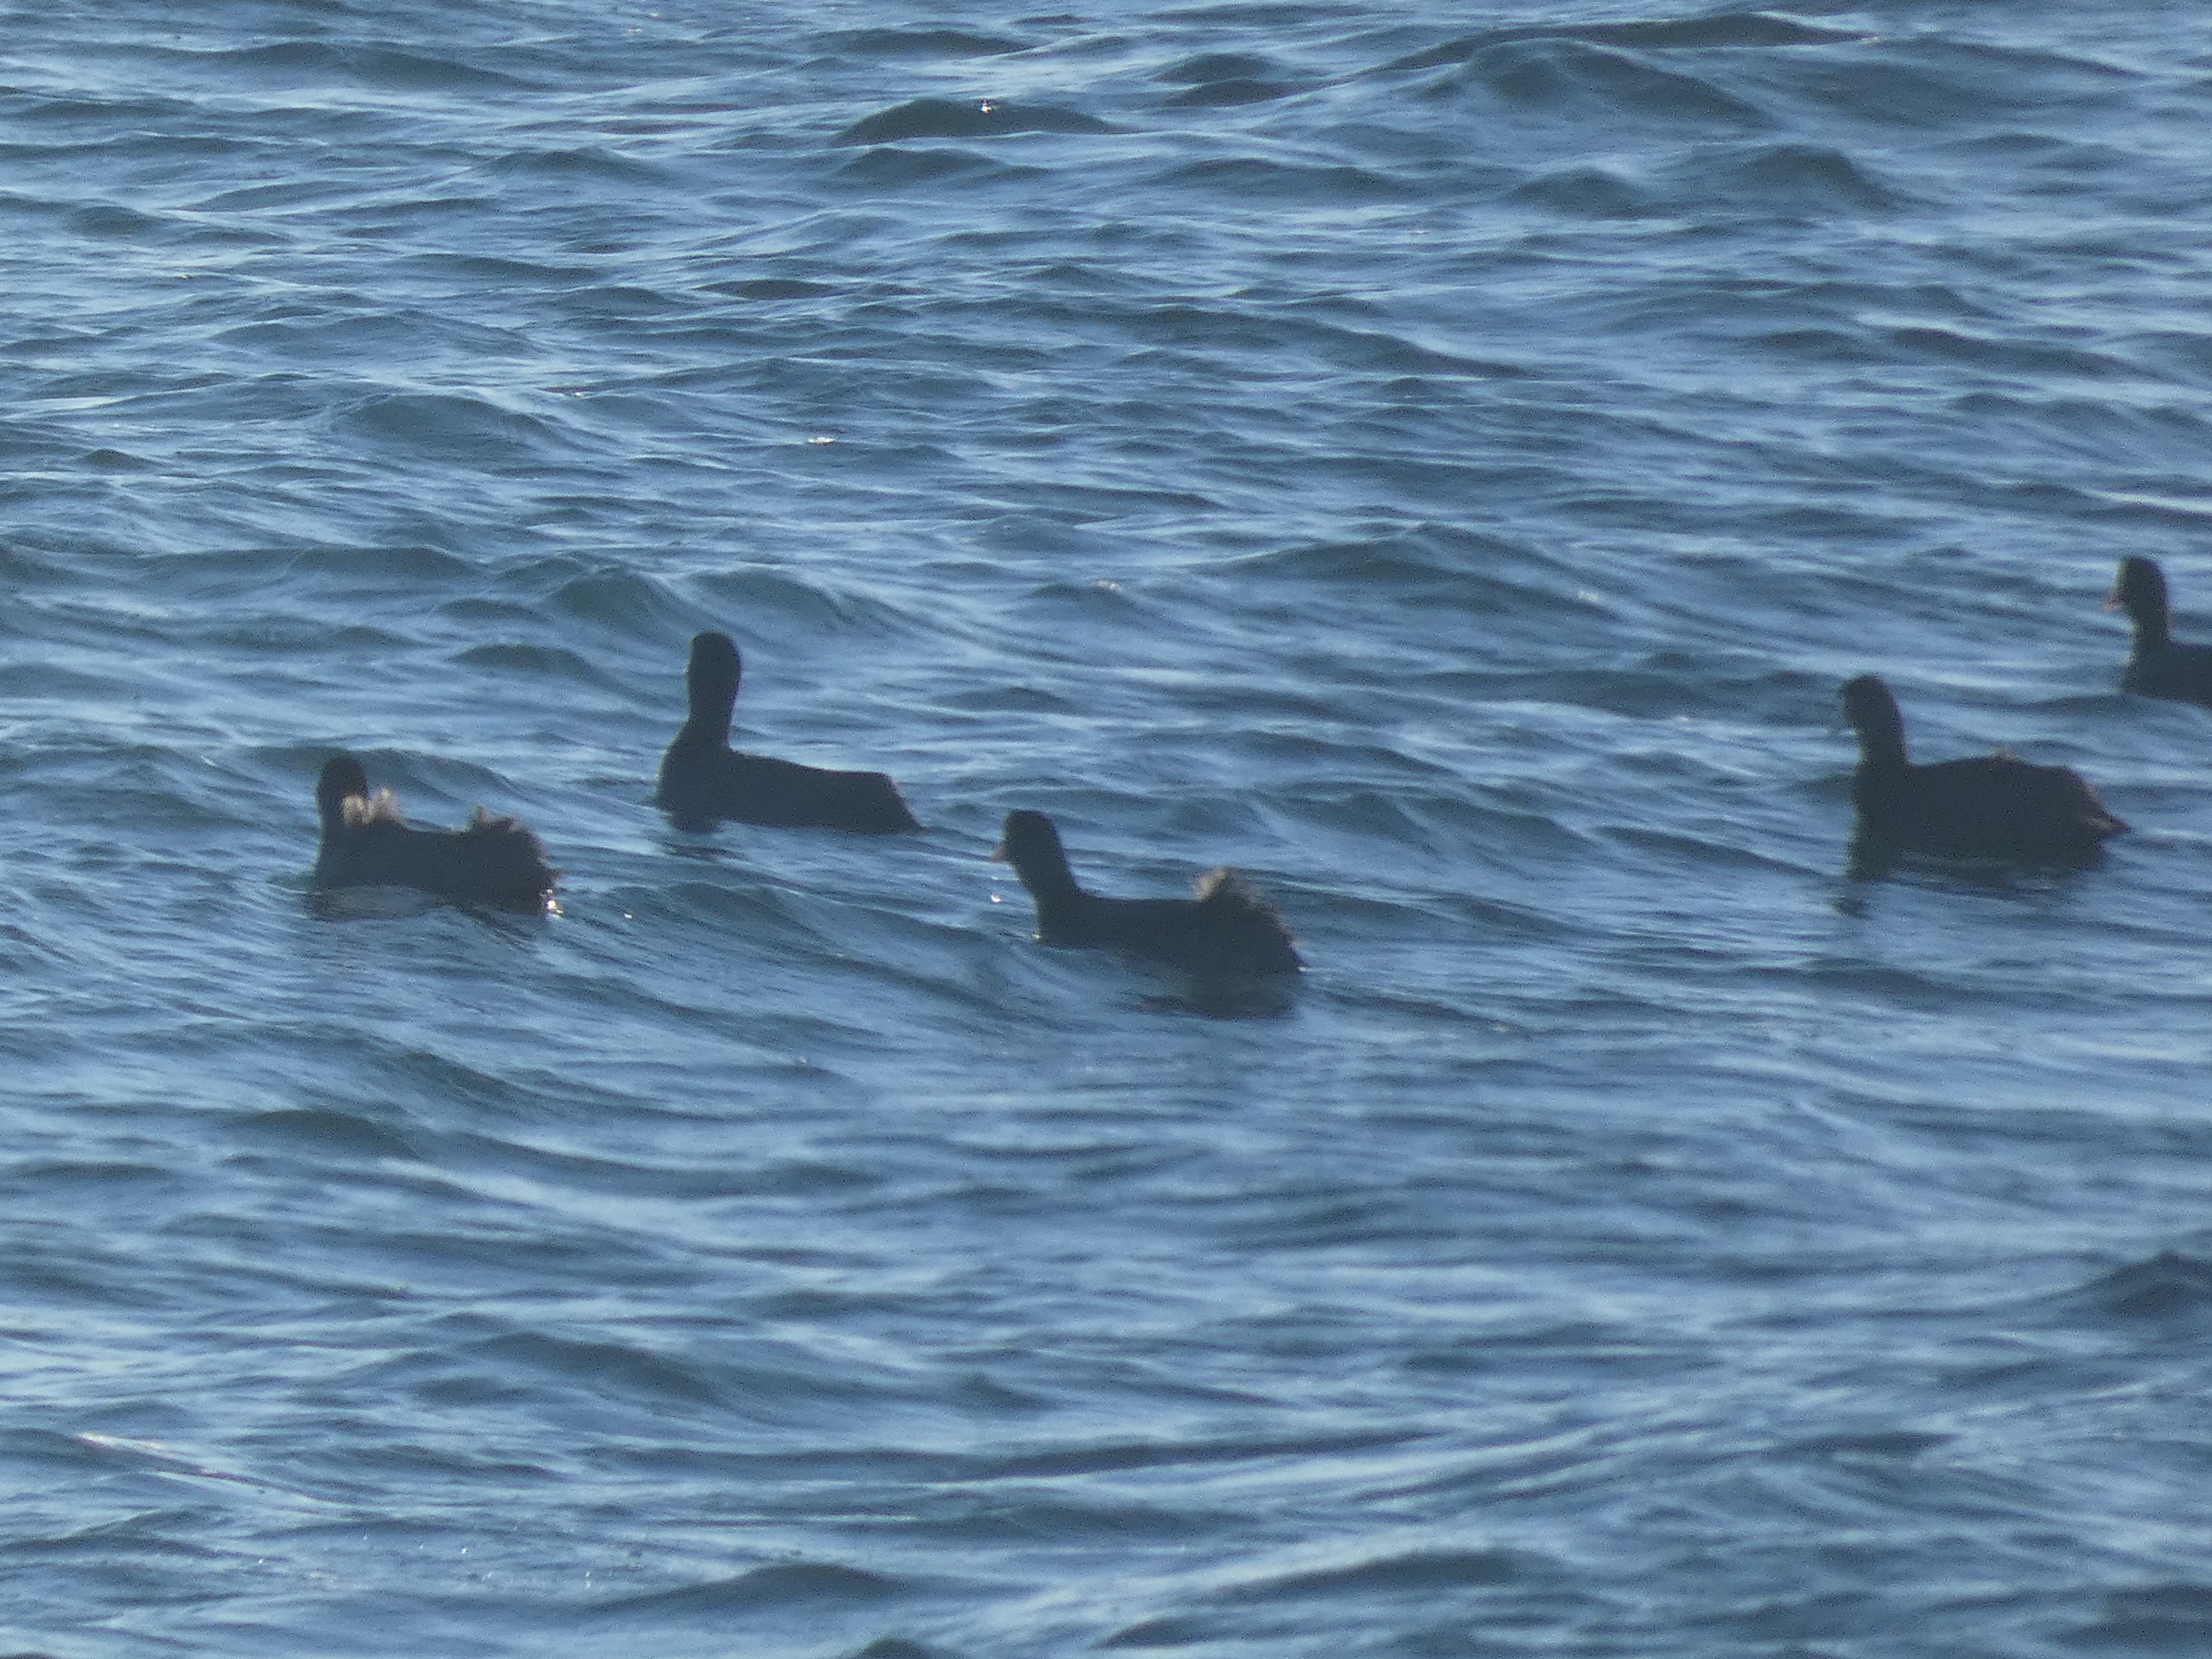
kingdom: Animalia
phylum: Chordata
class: Aves
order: Gruiformes
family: Rallidae
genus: Fulica
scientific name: Fulica atra
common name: Blishøne
